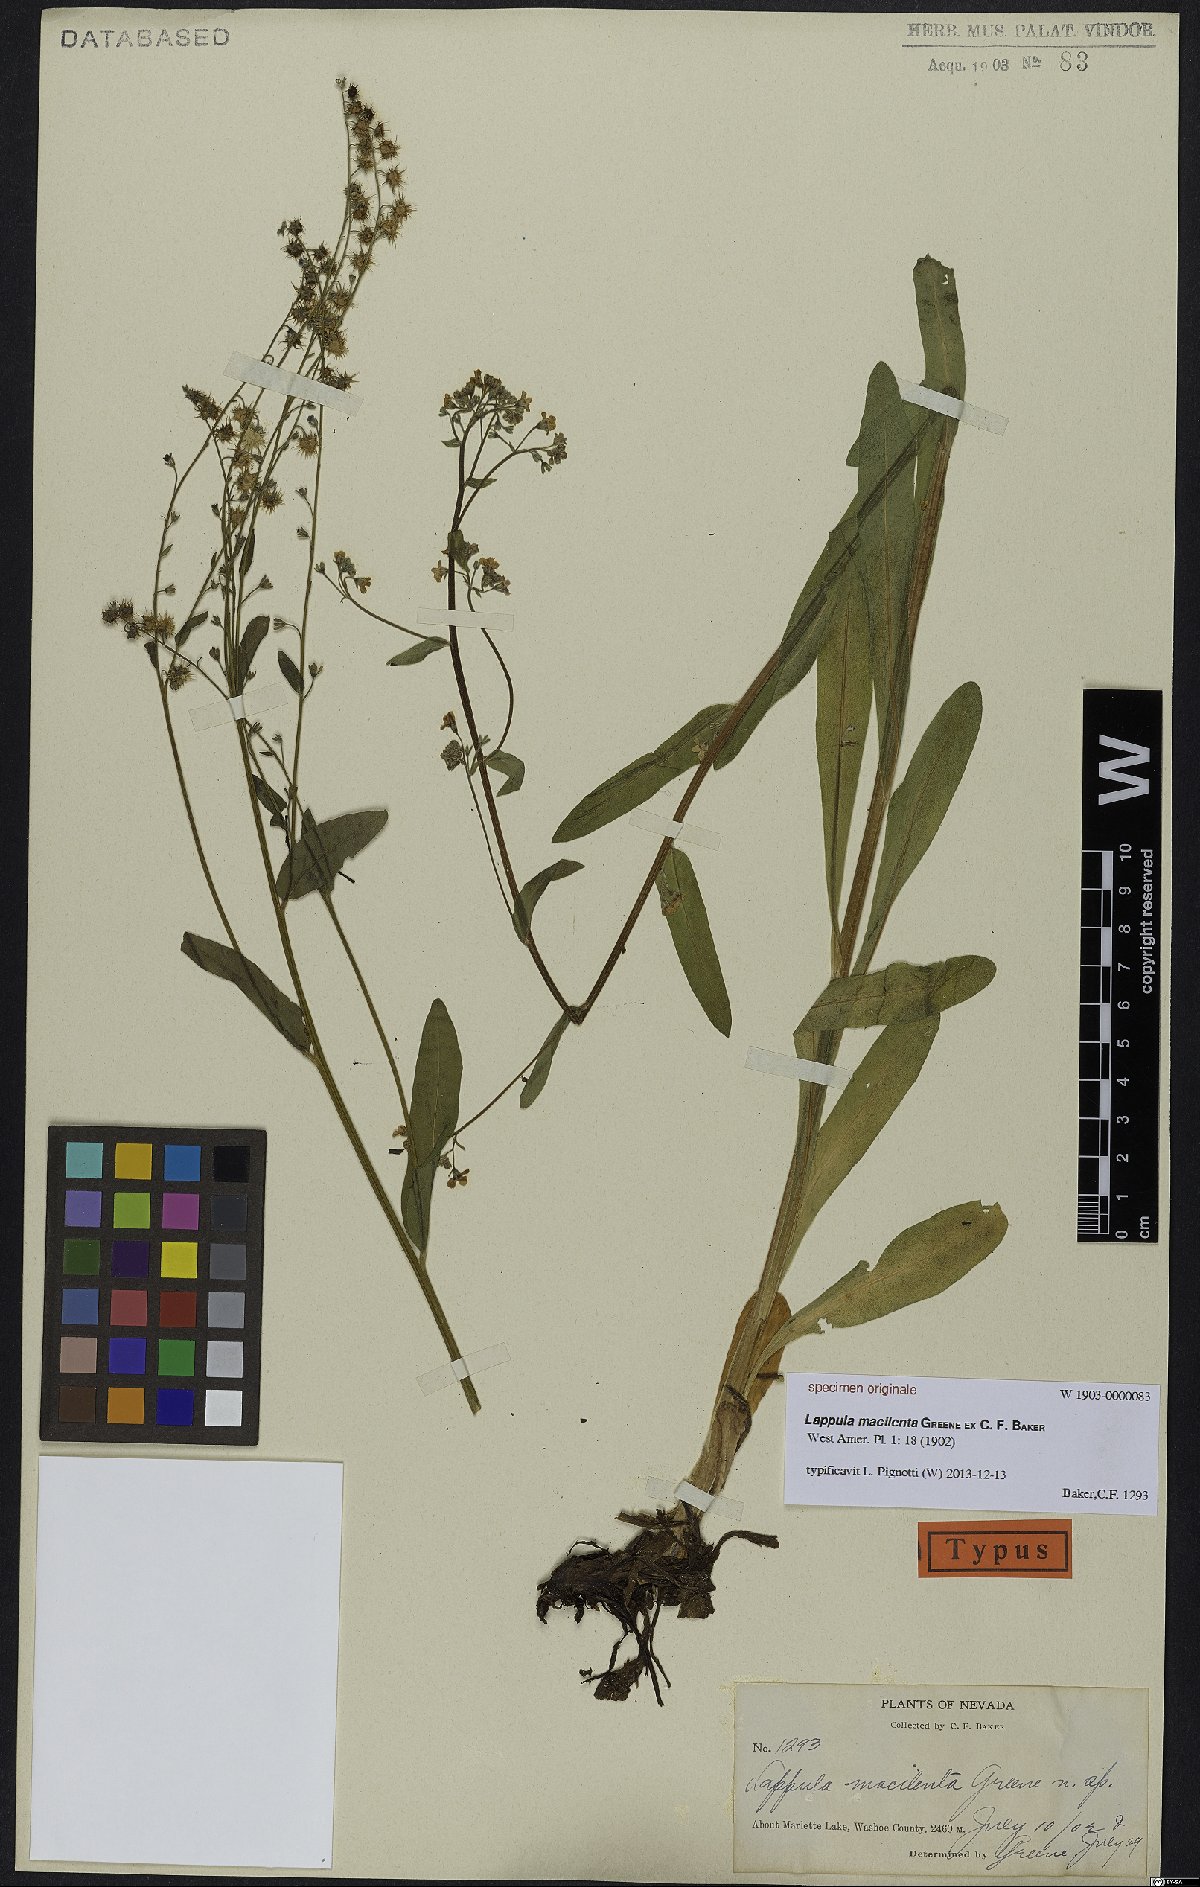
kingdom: Plantae
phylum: Tracheophyta
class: Magnoliopsida
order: Boraginales
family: Boraginaceae
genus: Lappula
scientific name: Lappula
